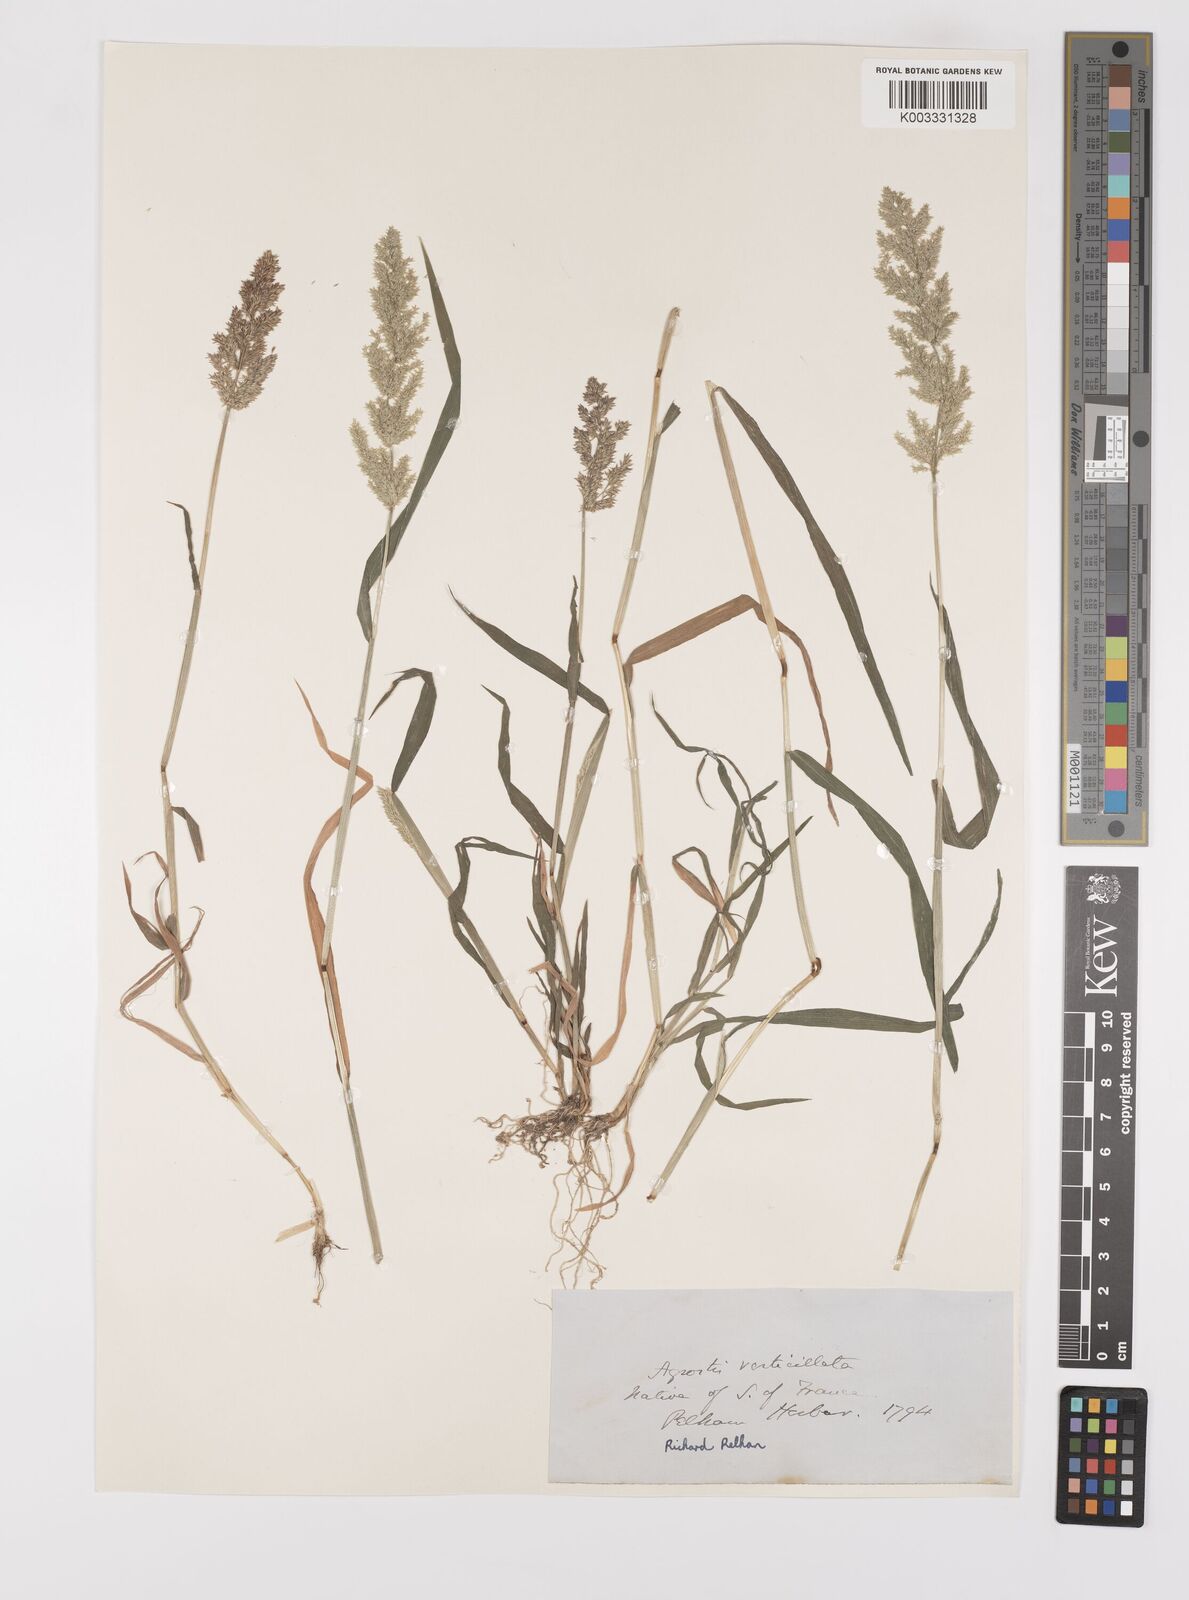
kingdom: Plantae
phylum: Tracheophyta
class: Liliopsida
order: Poales
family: Poaceae
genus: Polypogon
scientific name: Polypogon viridis
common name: Water bent
